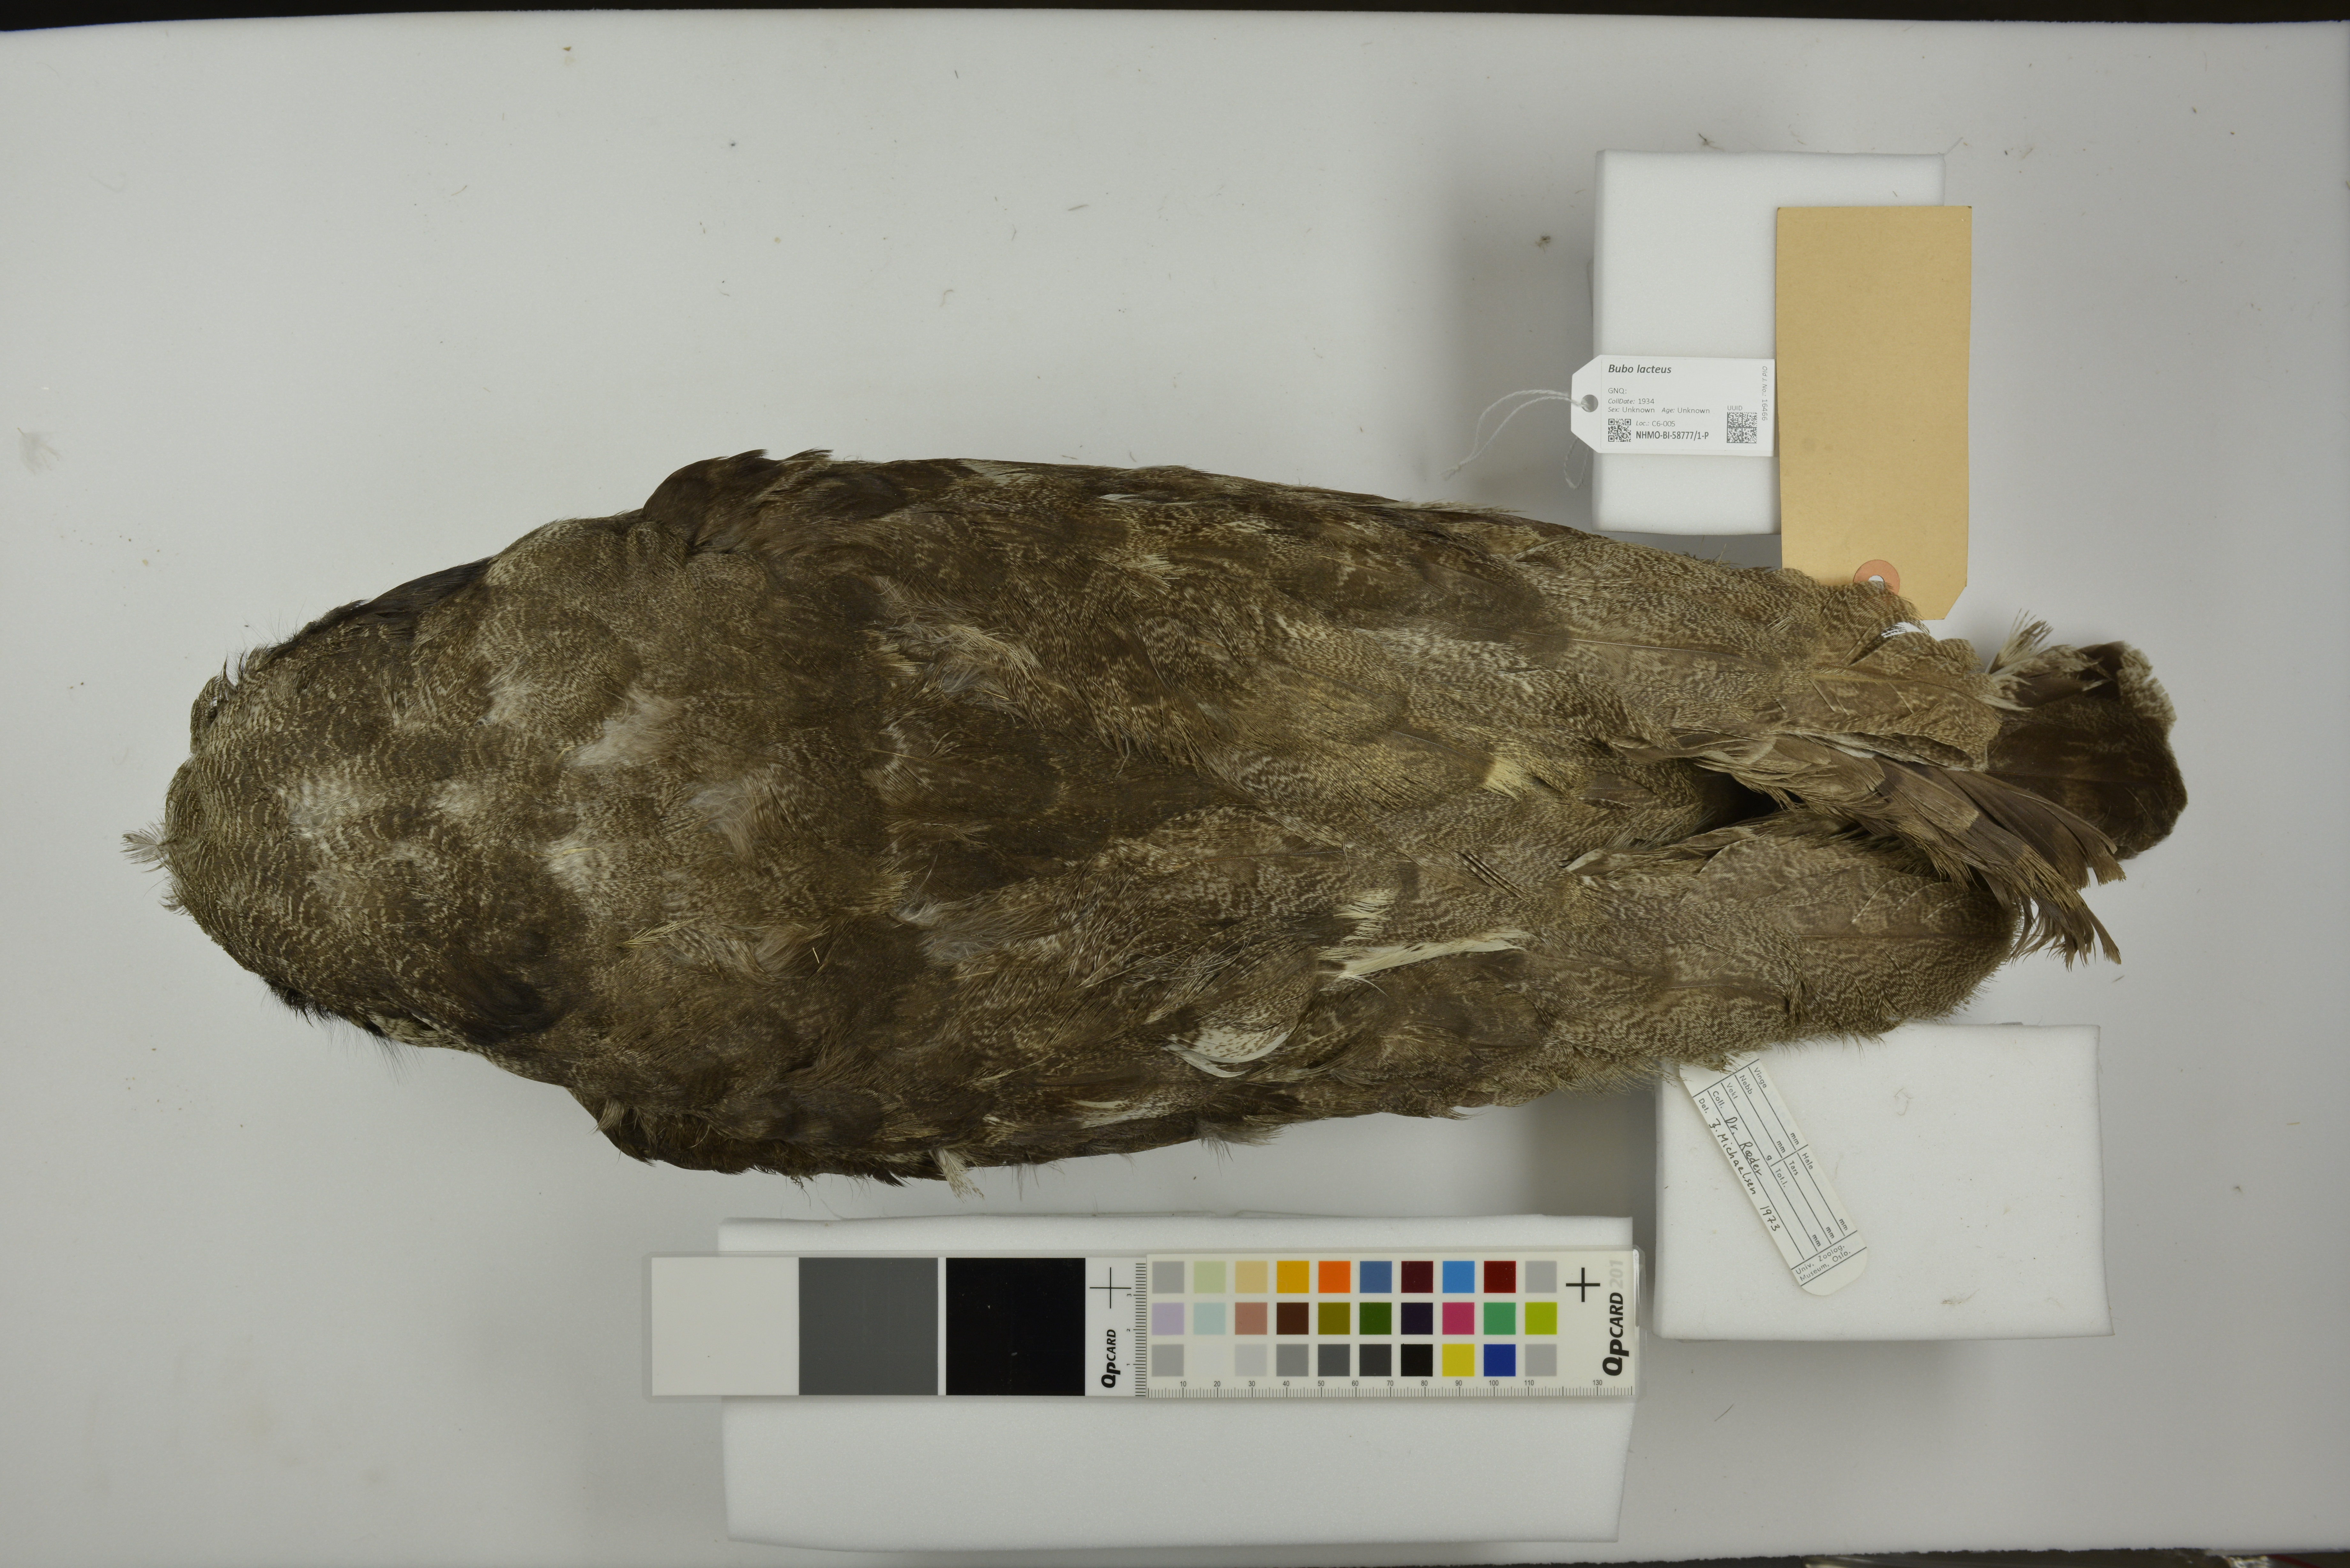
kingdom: Animalia
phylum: Chordata
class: Aves
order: Strigiformes
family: Strigidae
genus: Bubo
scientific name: Bubo lacteus
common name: Verreaux's eagle-owl
